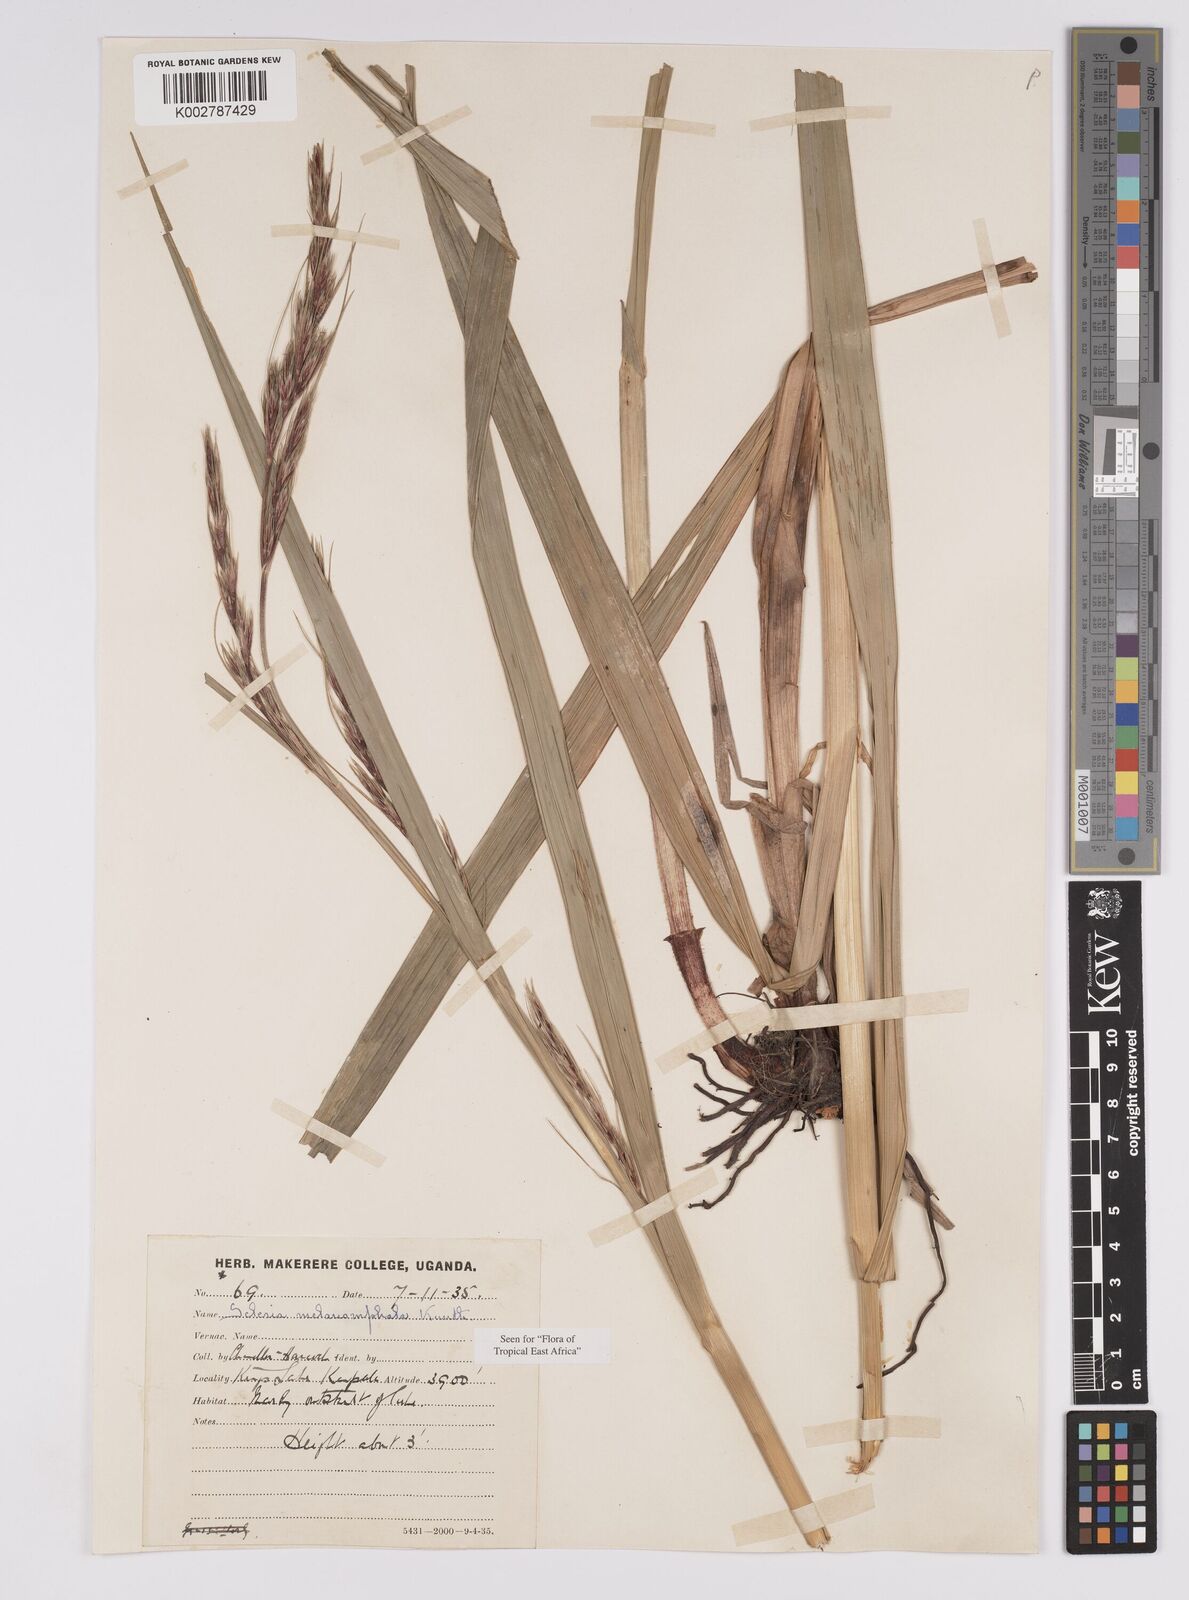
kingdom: Plantae
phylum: Tracheophyta
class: Liliopsida
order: Poales
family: Cyperaceae
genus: Scleria
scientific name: Scleria melanomphala
